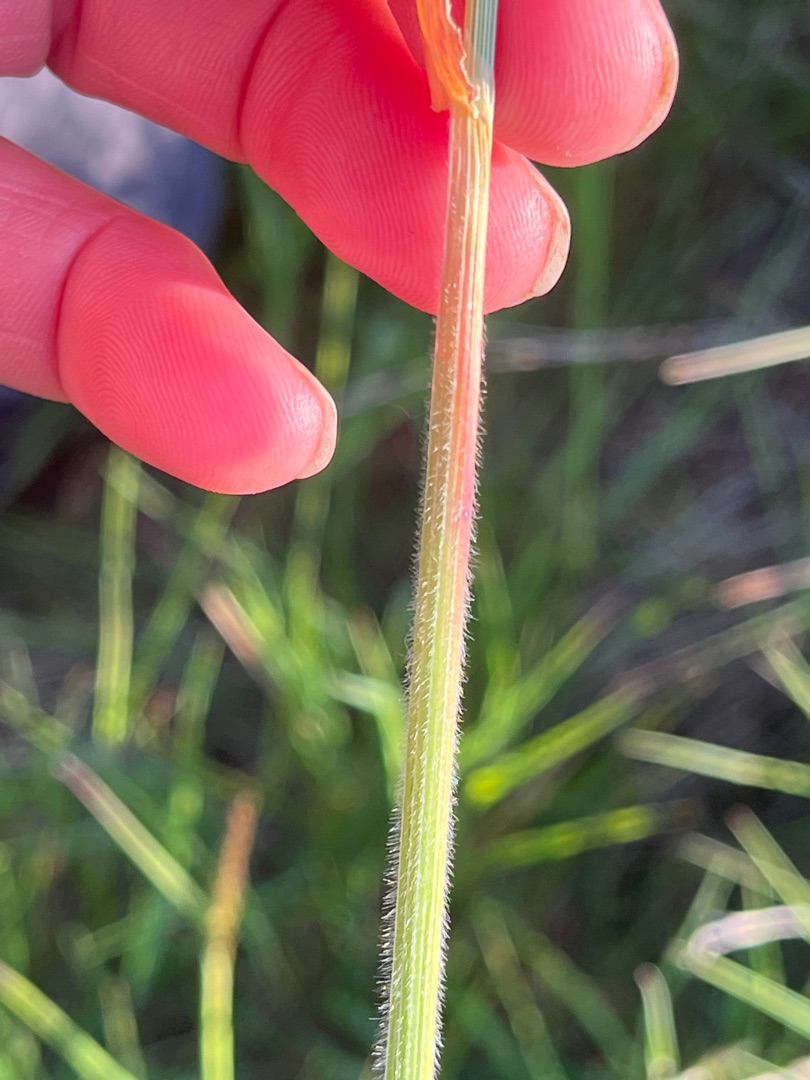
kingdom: Plantae
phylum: Tracheophyta
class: Liliopsida
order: Poales
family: Poaceae
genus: Avenula
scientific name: Avenula pubescens
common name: Dunet havre
